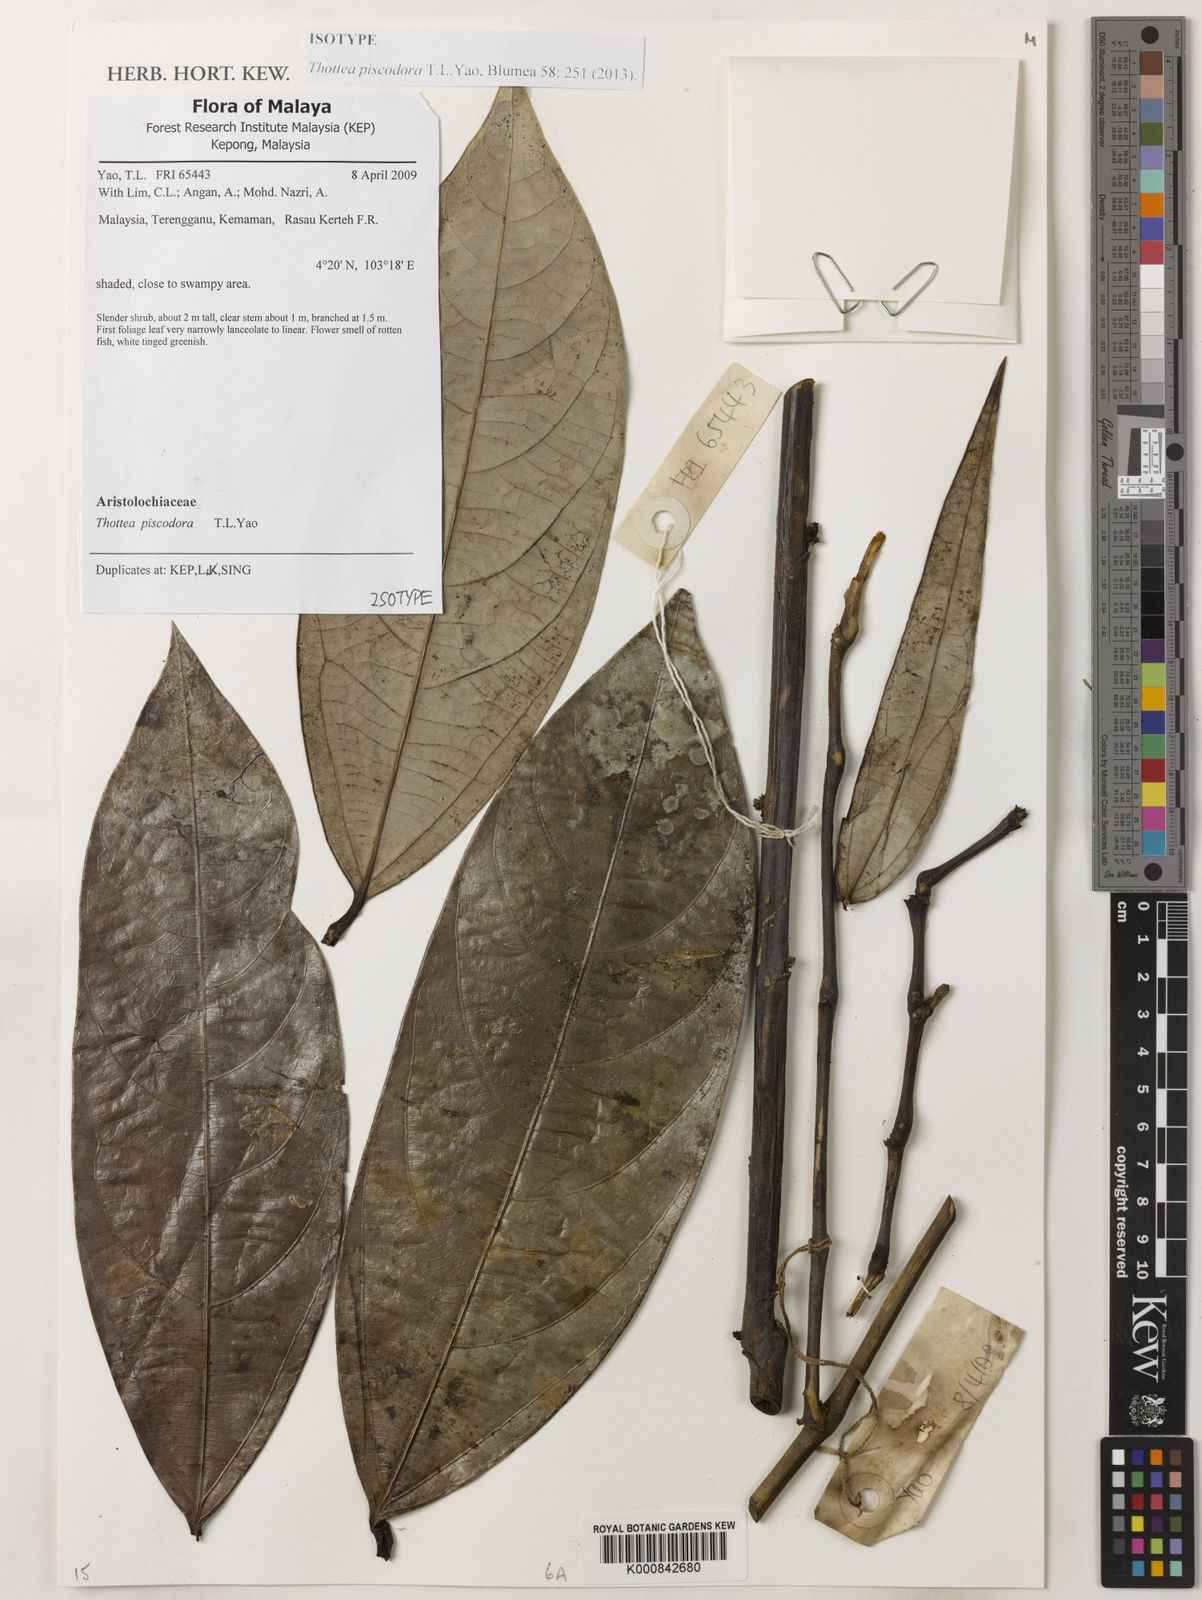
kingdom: Plantae
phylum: Tracheophyta
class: Magnoliopsida
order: Piperales
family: Aristolochiaceae
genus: Thottea
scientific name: Thottea piscodora
